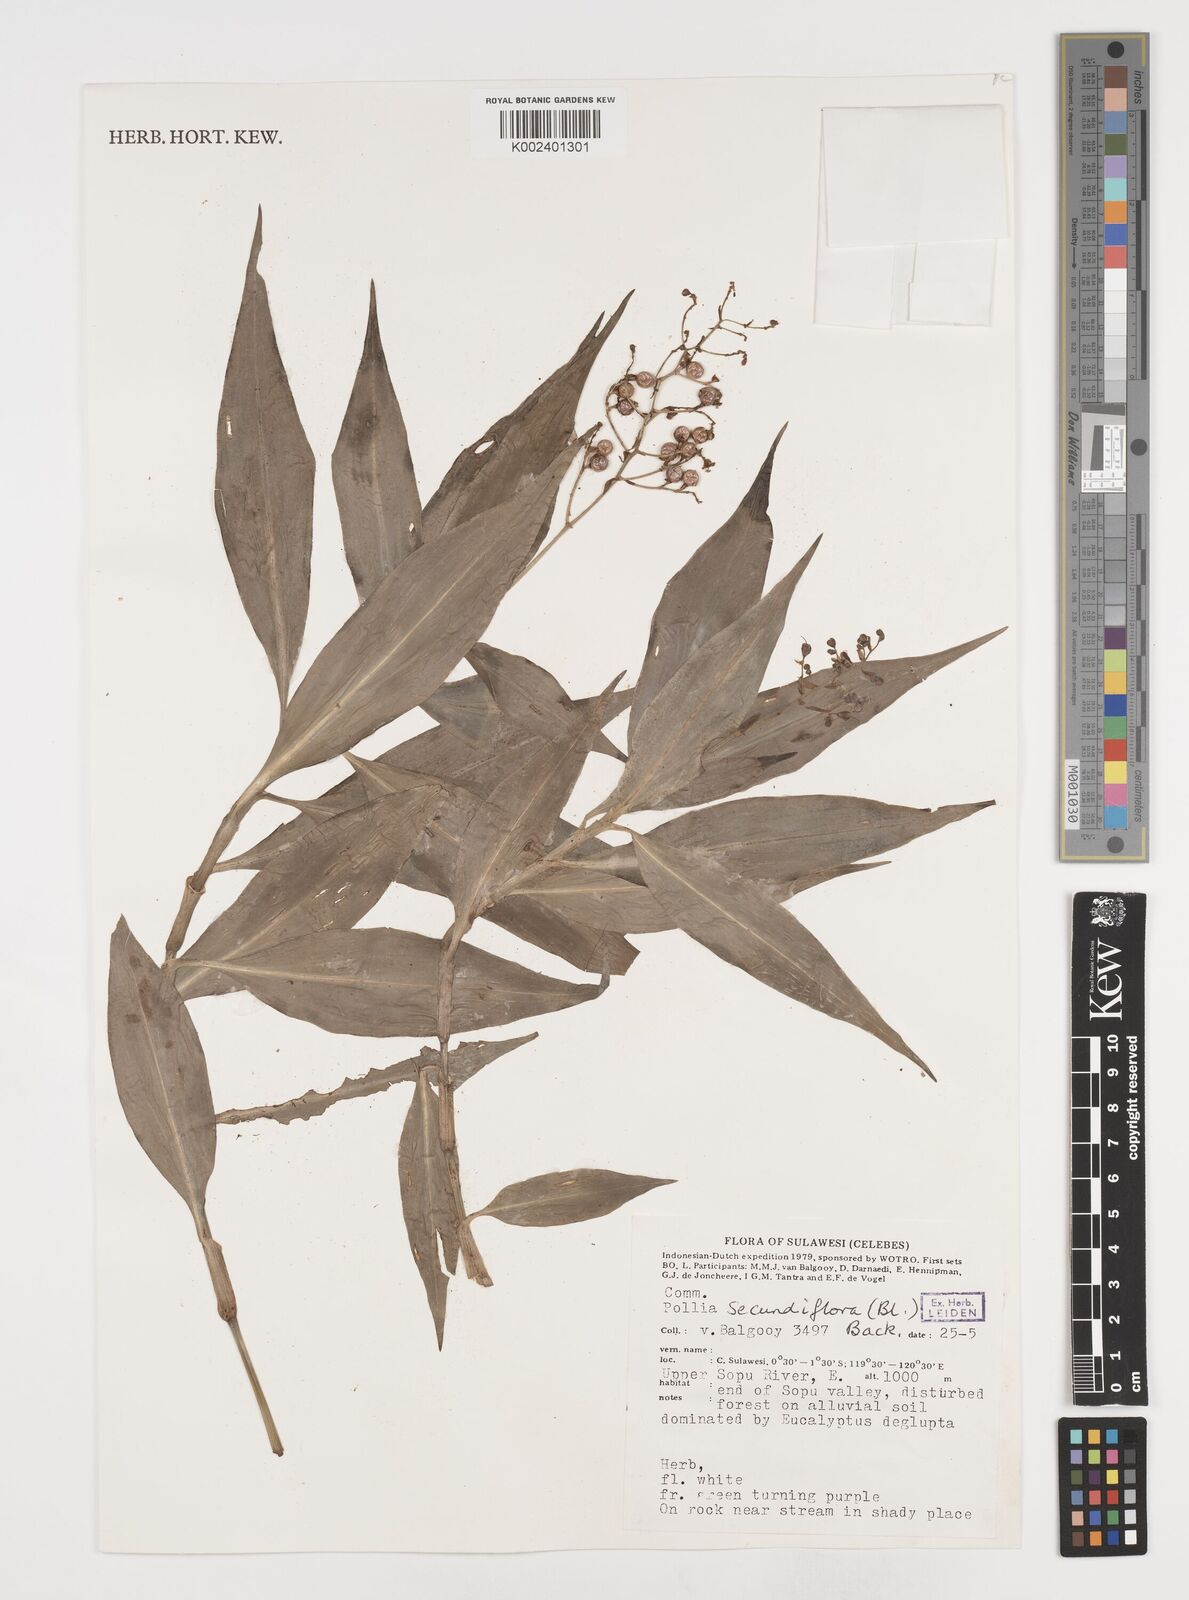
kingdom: Plantae
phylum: Tracheophyta
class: Liliopsida
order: Commelinales
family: Commelinaceae
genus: Pollia
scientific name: Pollia secundiflora
